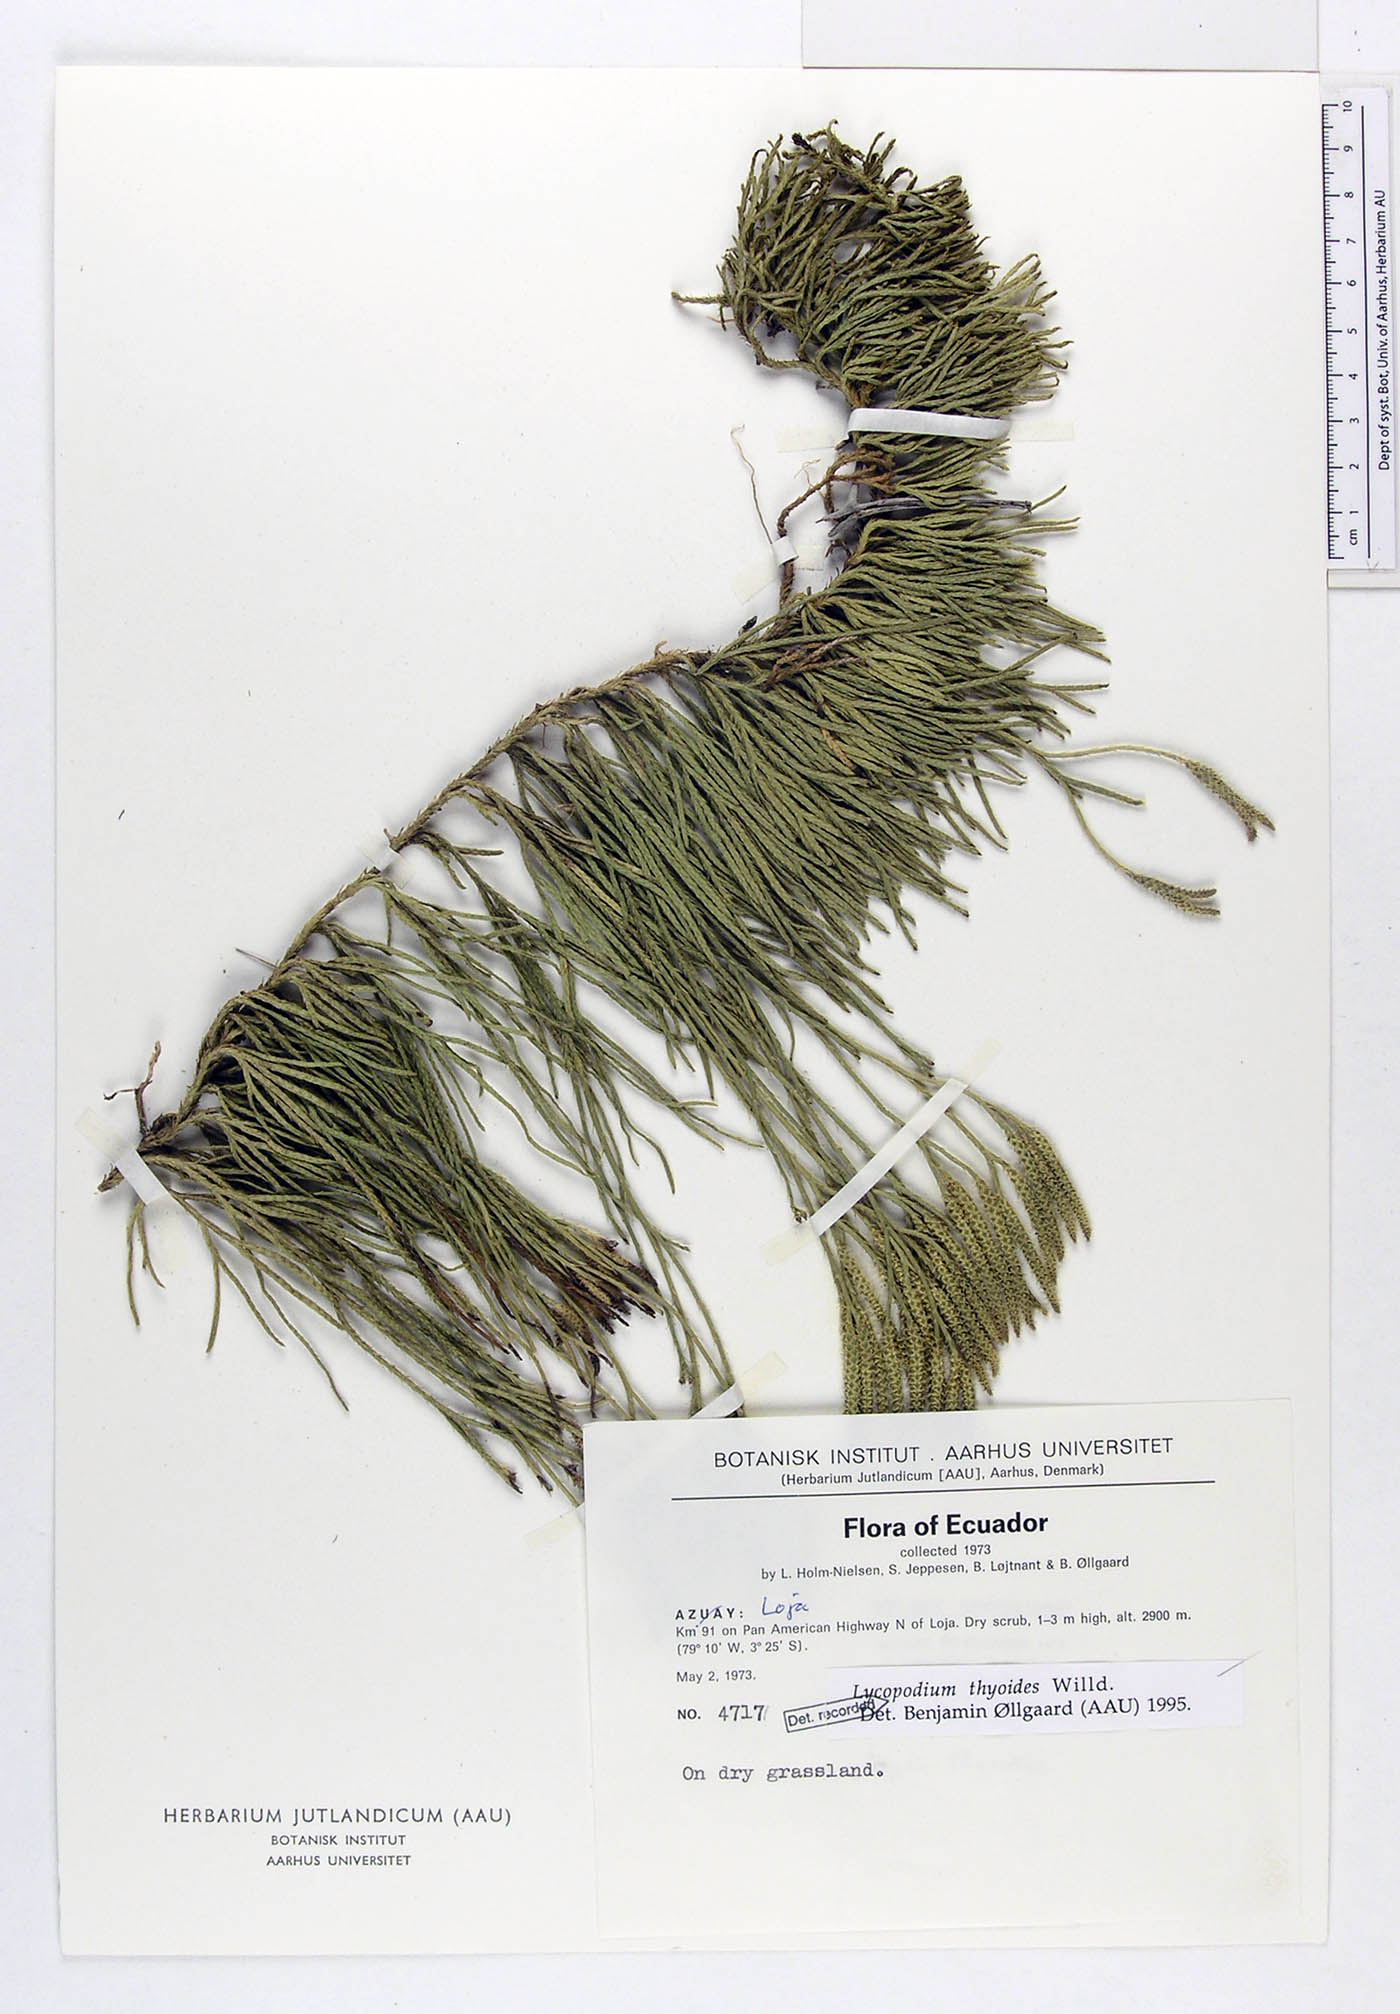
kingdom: Plantae
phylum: Tracheophyta
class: Lycopodiopsida
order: Lycopodiales
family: Lycopodiaceae
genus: Diphasiastrum
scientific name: Diphasiastrum thyoides
